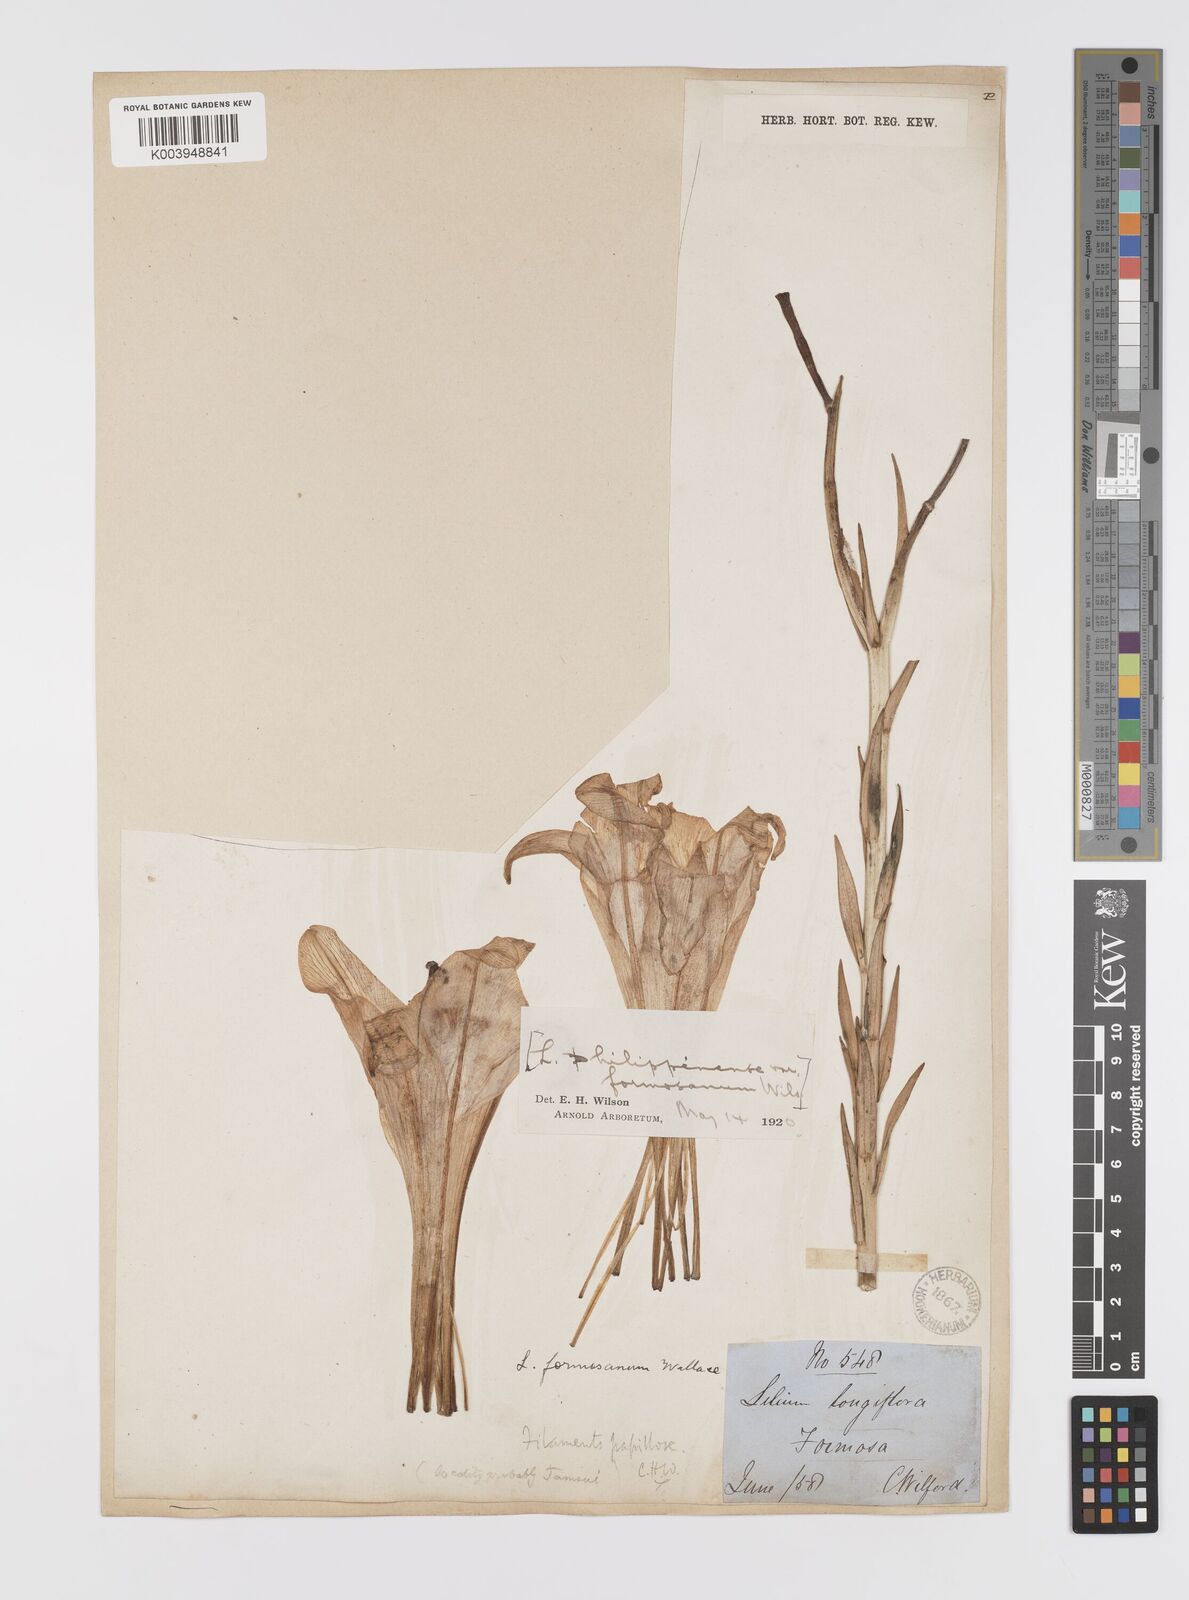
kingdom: Plantae
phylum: Tracheophyta
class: Liliopsida
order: Liliales
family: Liliaceae
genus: Lilium
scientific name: Lilium formosanum
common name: Formosa lily
